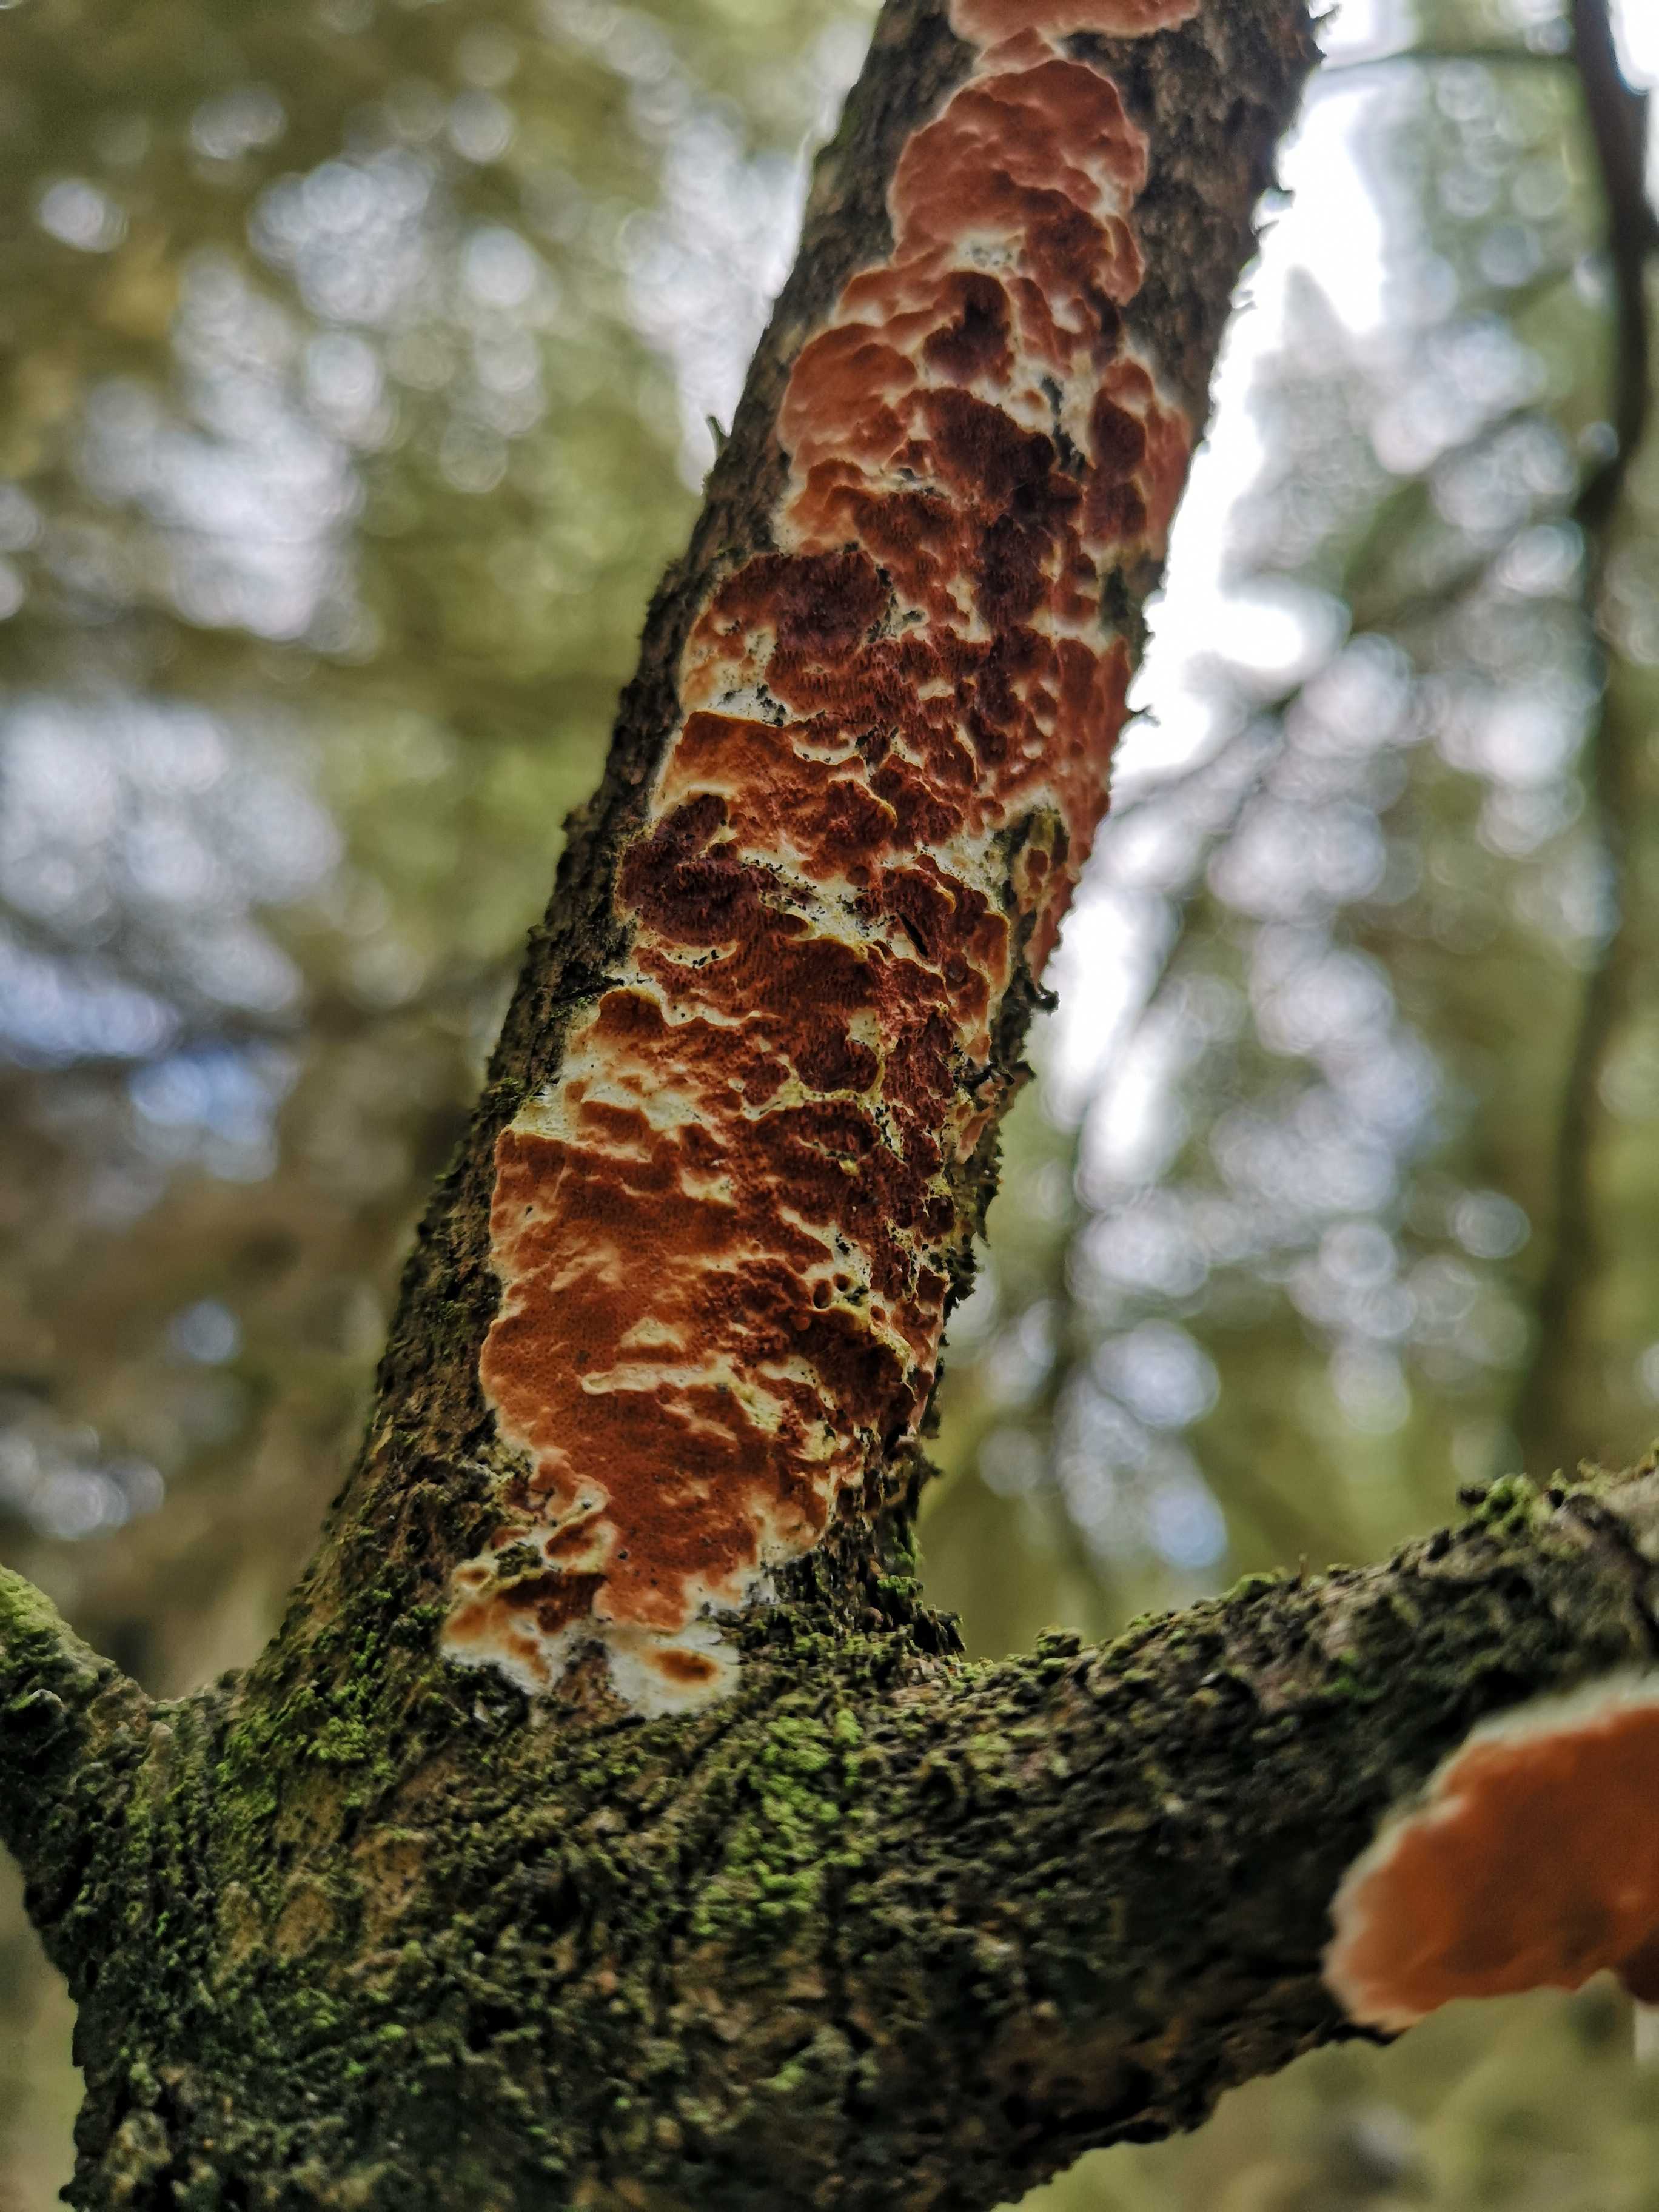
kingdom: Fungi
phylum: Basidiomycota
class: Agaricomycetes
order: Polyporales
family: Irpicaceae
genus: Meruliopsis
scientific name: Meruliopsis taxicola
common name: purpurbrun foldporesvamp
